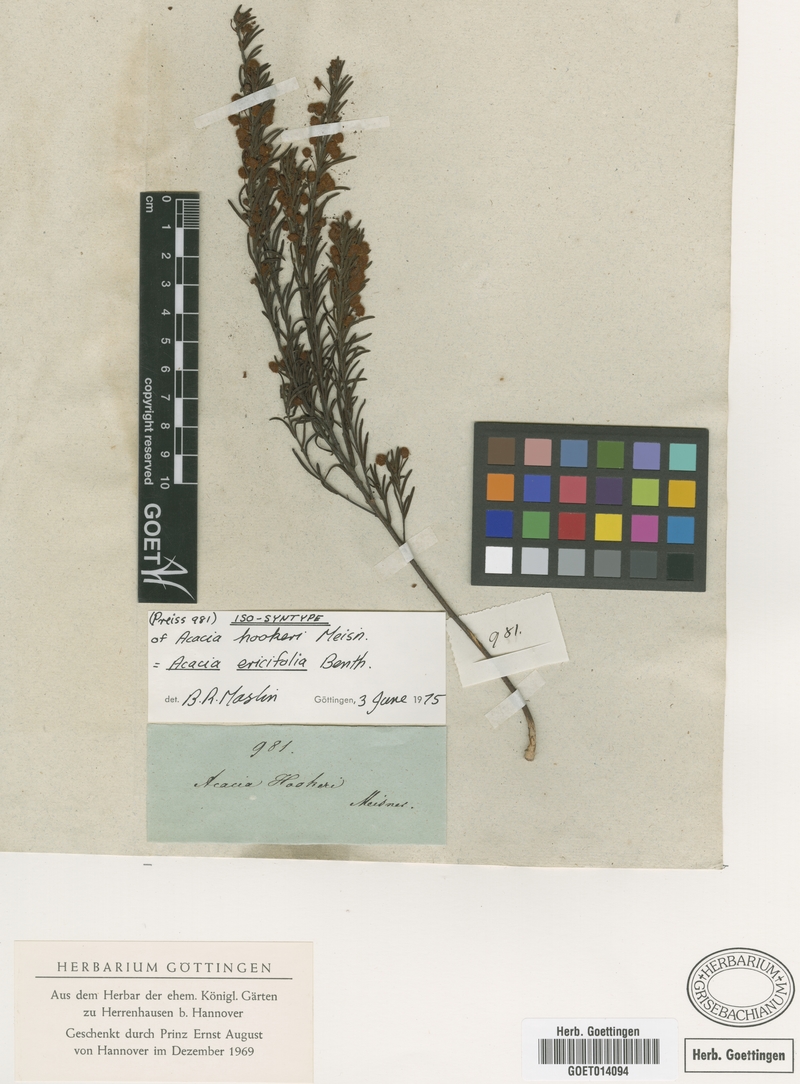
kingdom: Plantae
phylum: Tracheophyta
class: Magnoliopsida
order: Fabales
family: Fabaceae
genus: Acacia
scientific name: Acacia ericifolia
